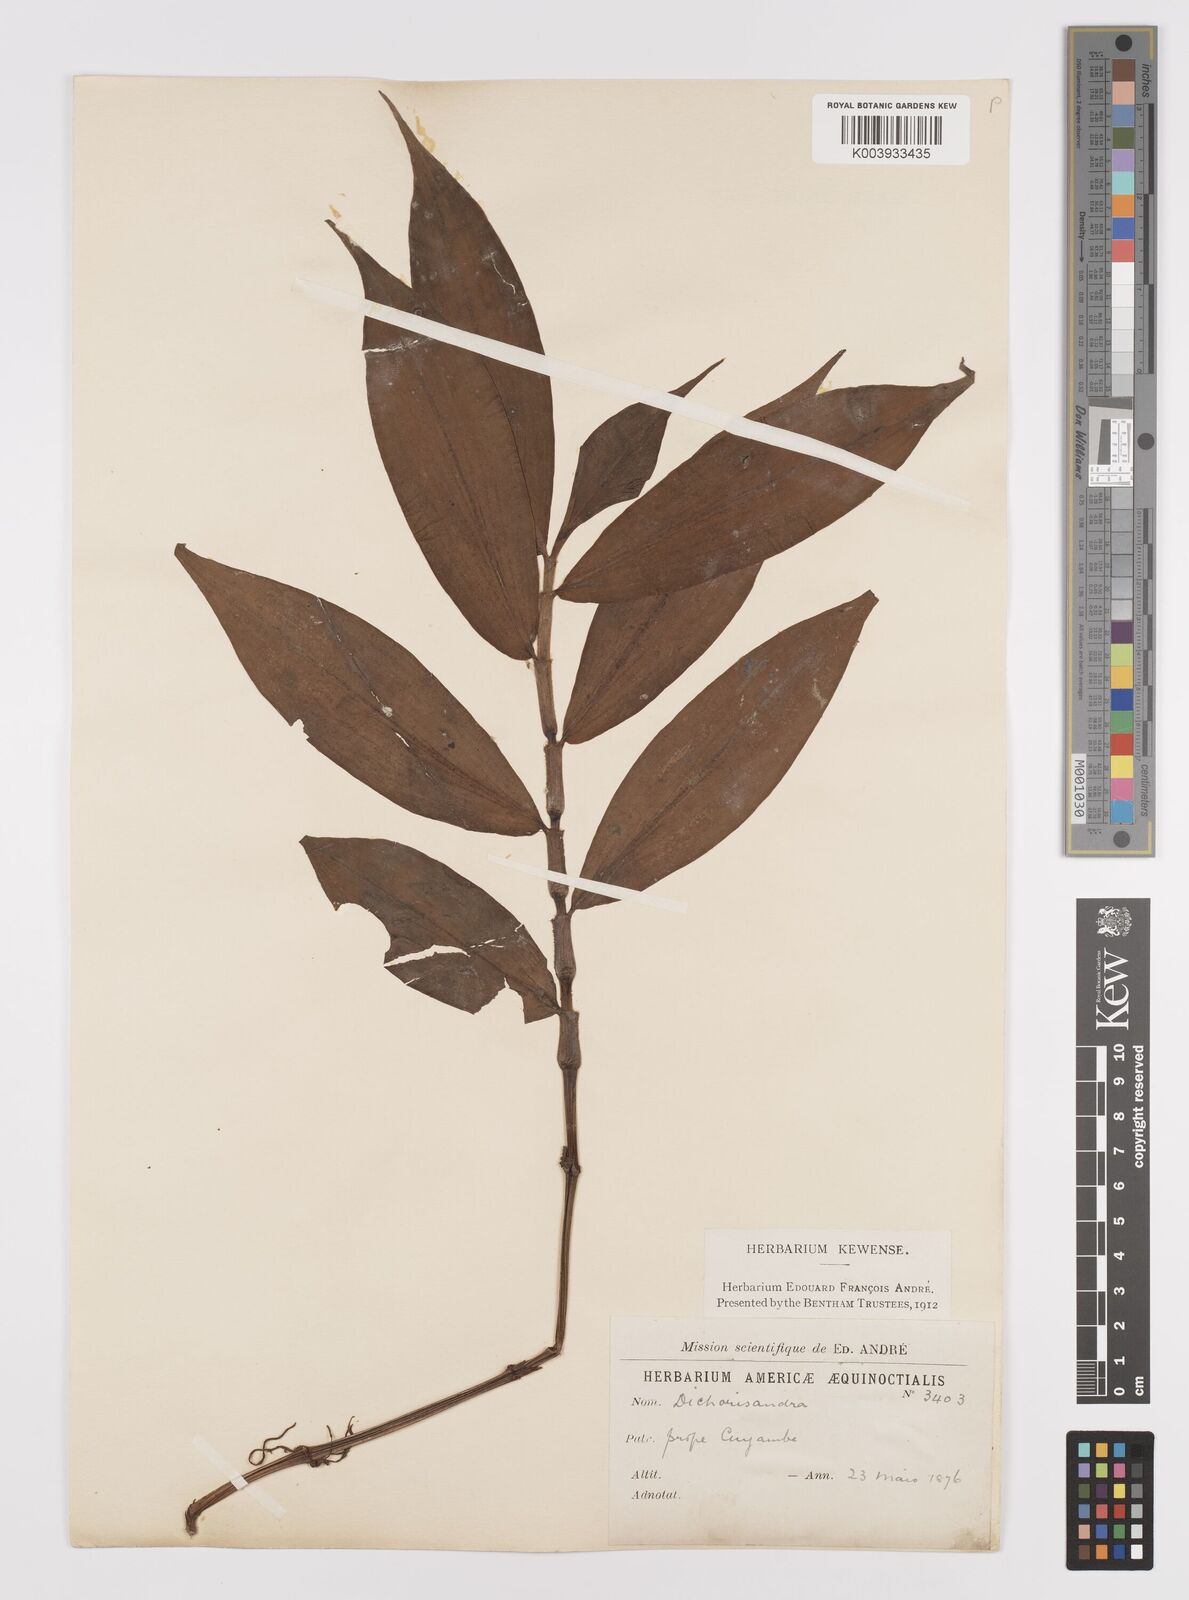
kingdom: Plantae
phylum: Tracheophyta
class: Liliopsida
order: Commelinales
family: Commelinaceae
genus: Dichorisandra
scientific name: Dichorisandra hexandra
